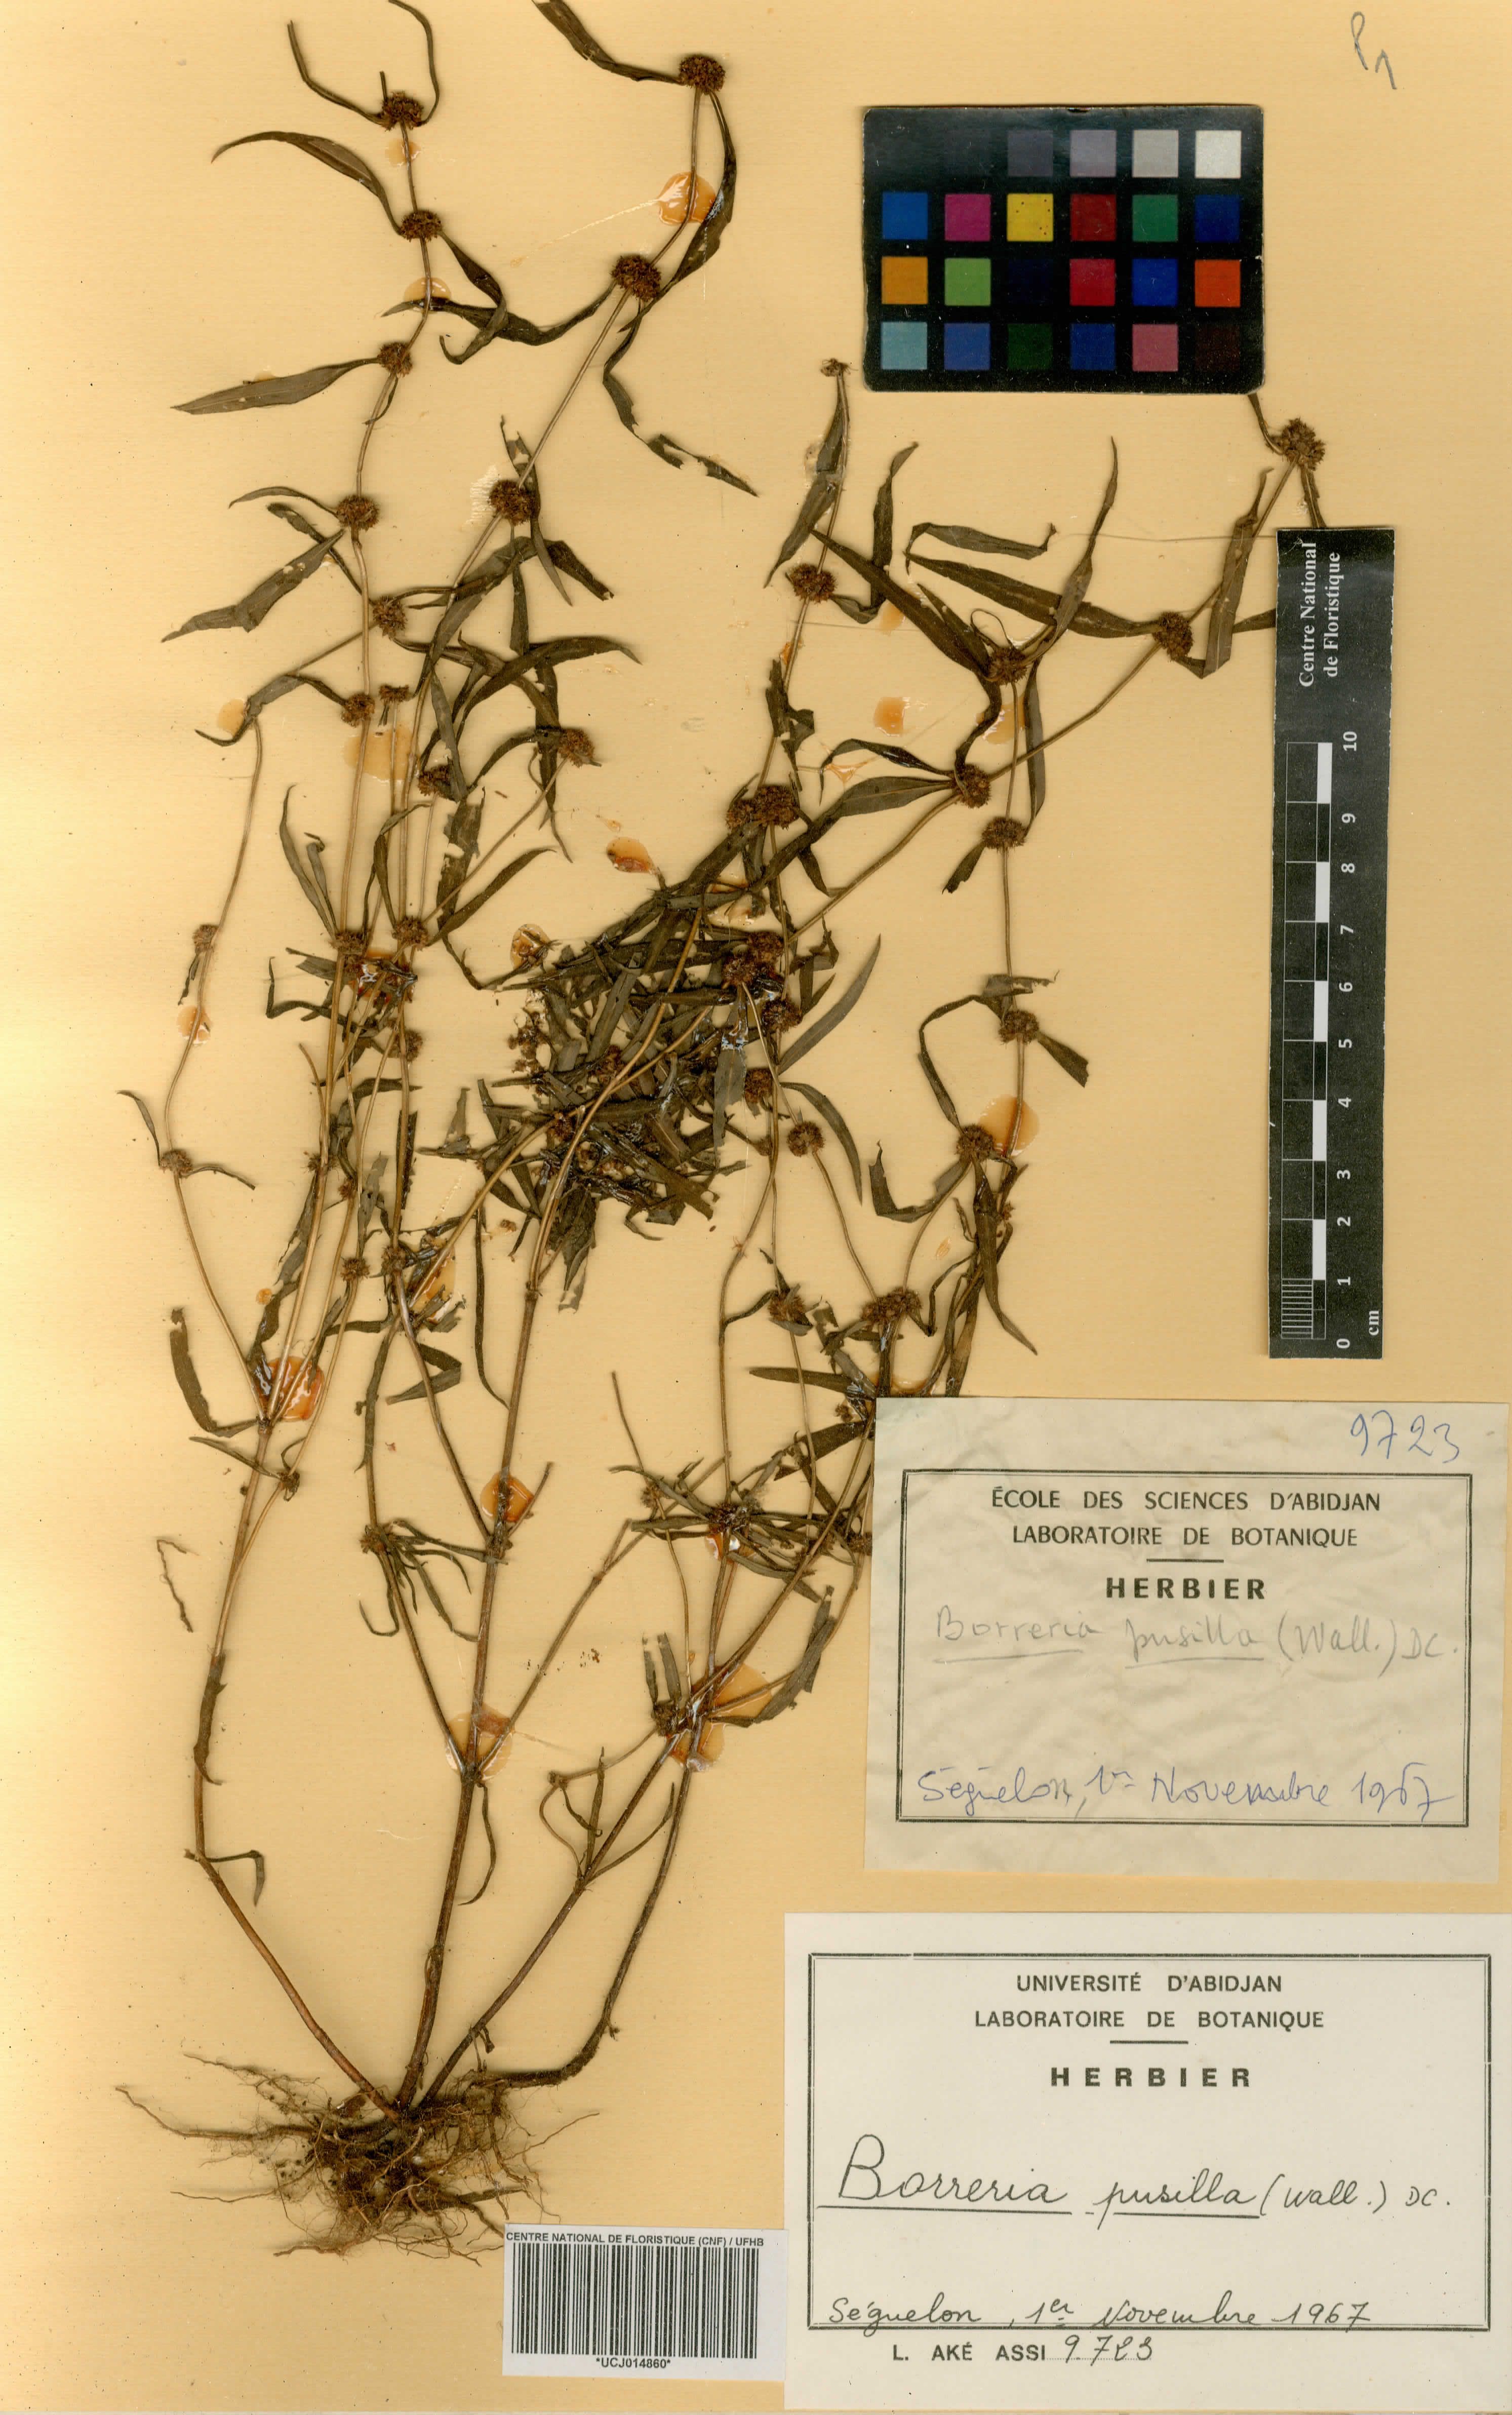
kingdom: Plantae
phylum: Tracheophyta
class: Magnoliopsida
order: Gentianales
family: Rubiaceae
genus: Spermacoce
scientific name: Spermacoce pusilla
